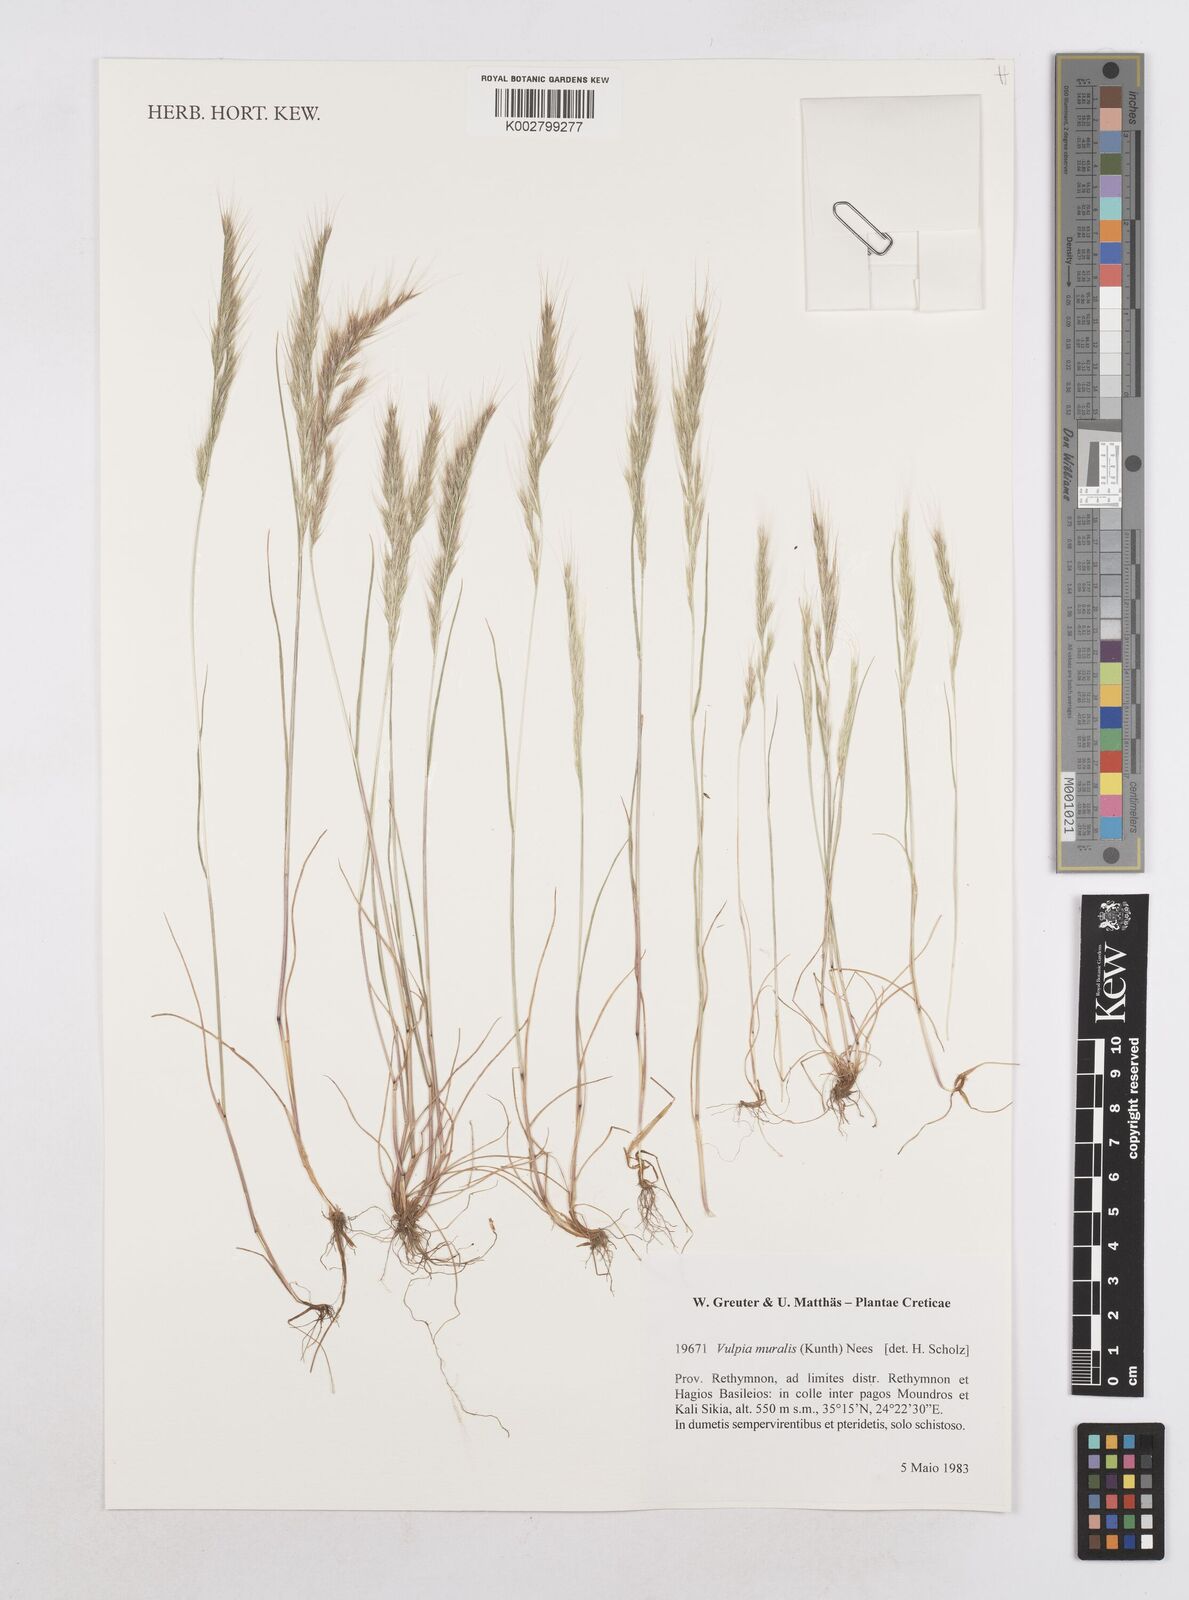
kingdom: Plantae
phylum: Tracheophyta
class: Liliopsida
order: Poales
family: Poaceae
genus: Festuca
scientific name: Festuca muralis
